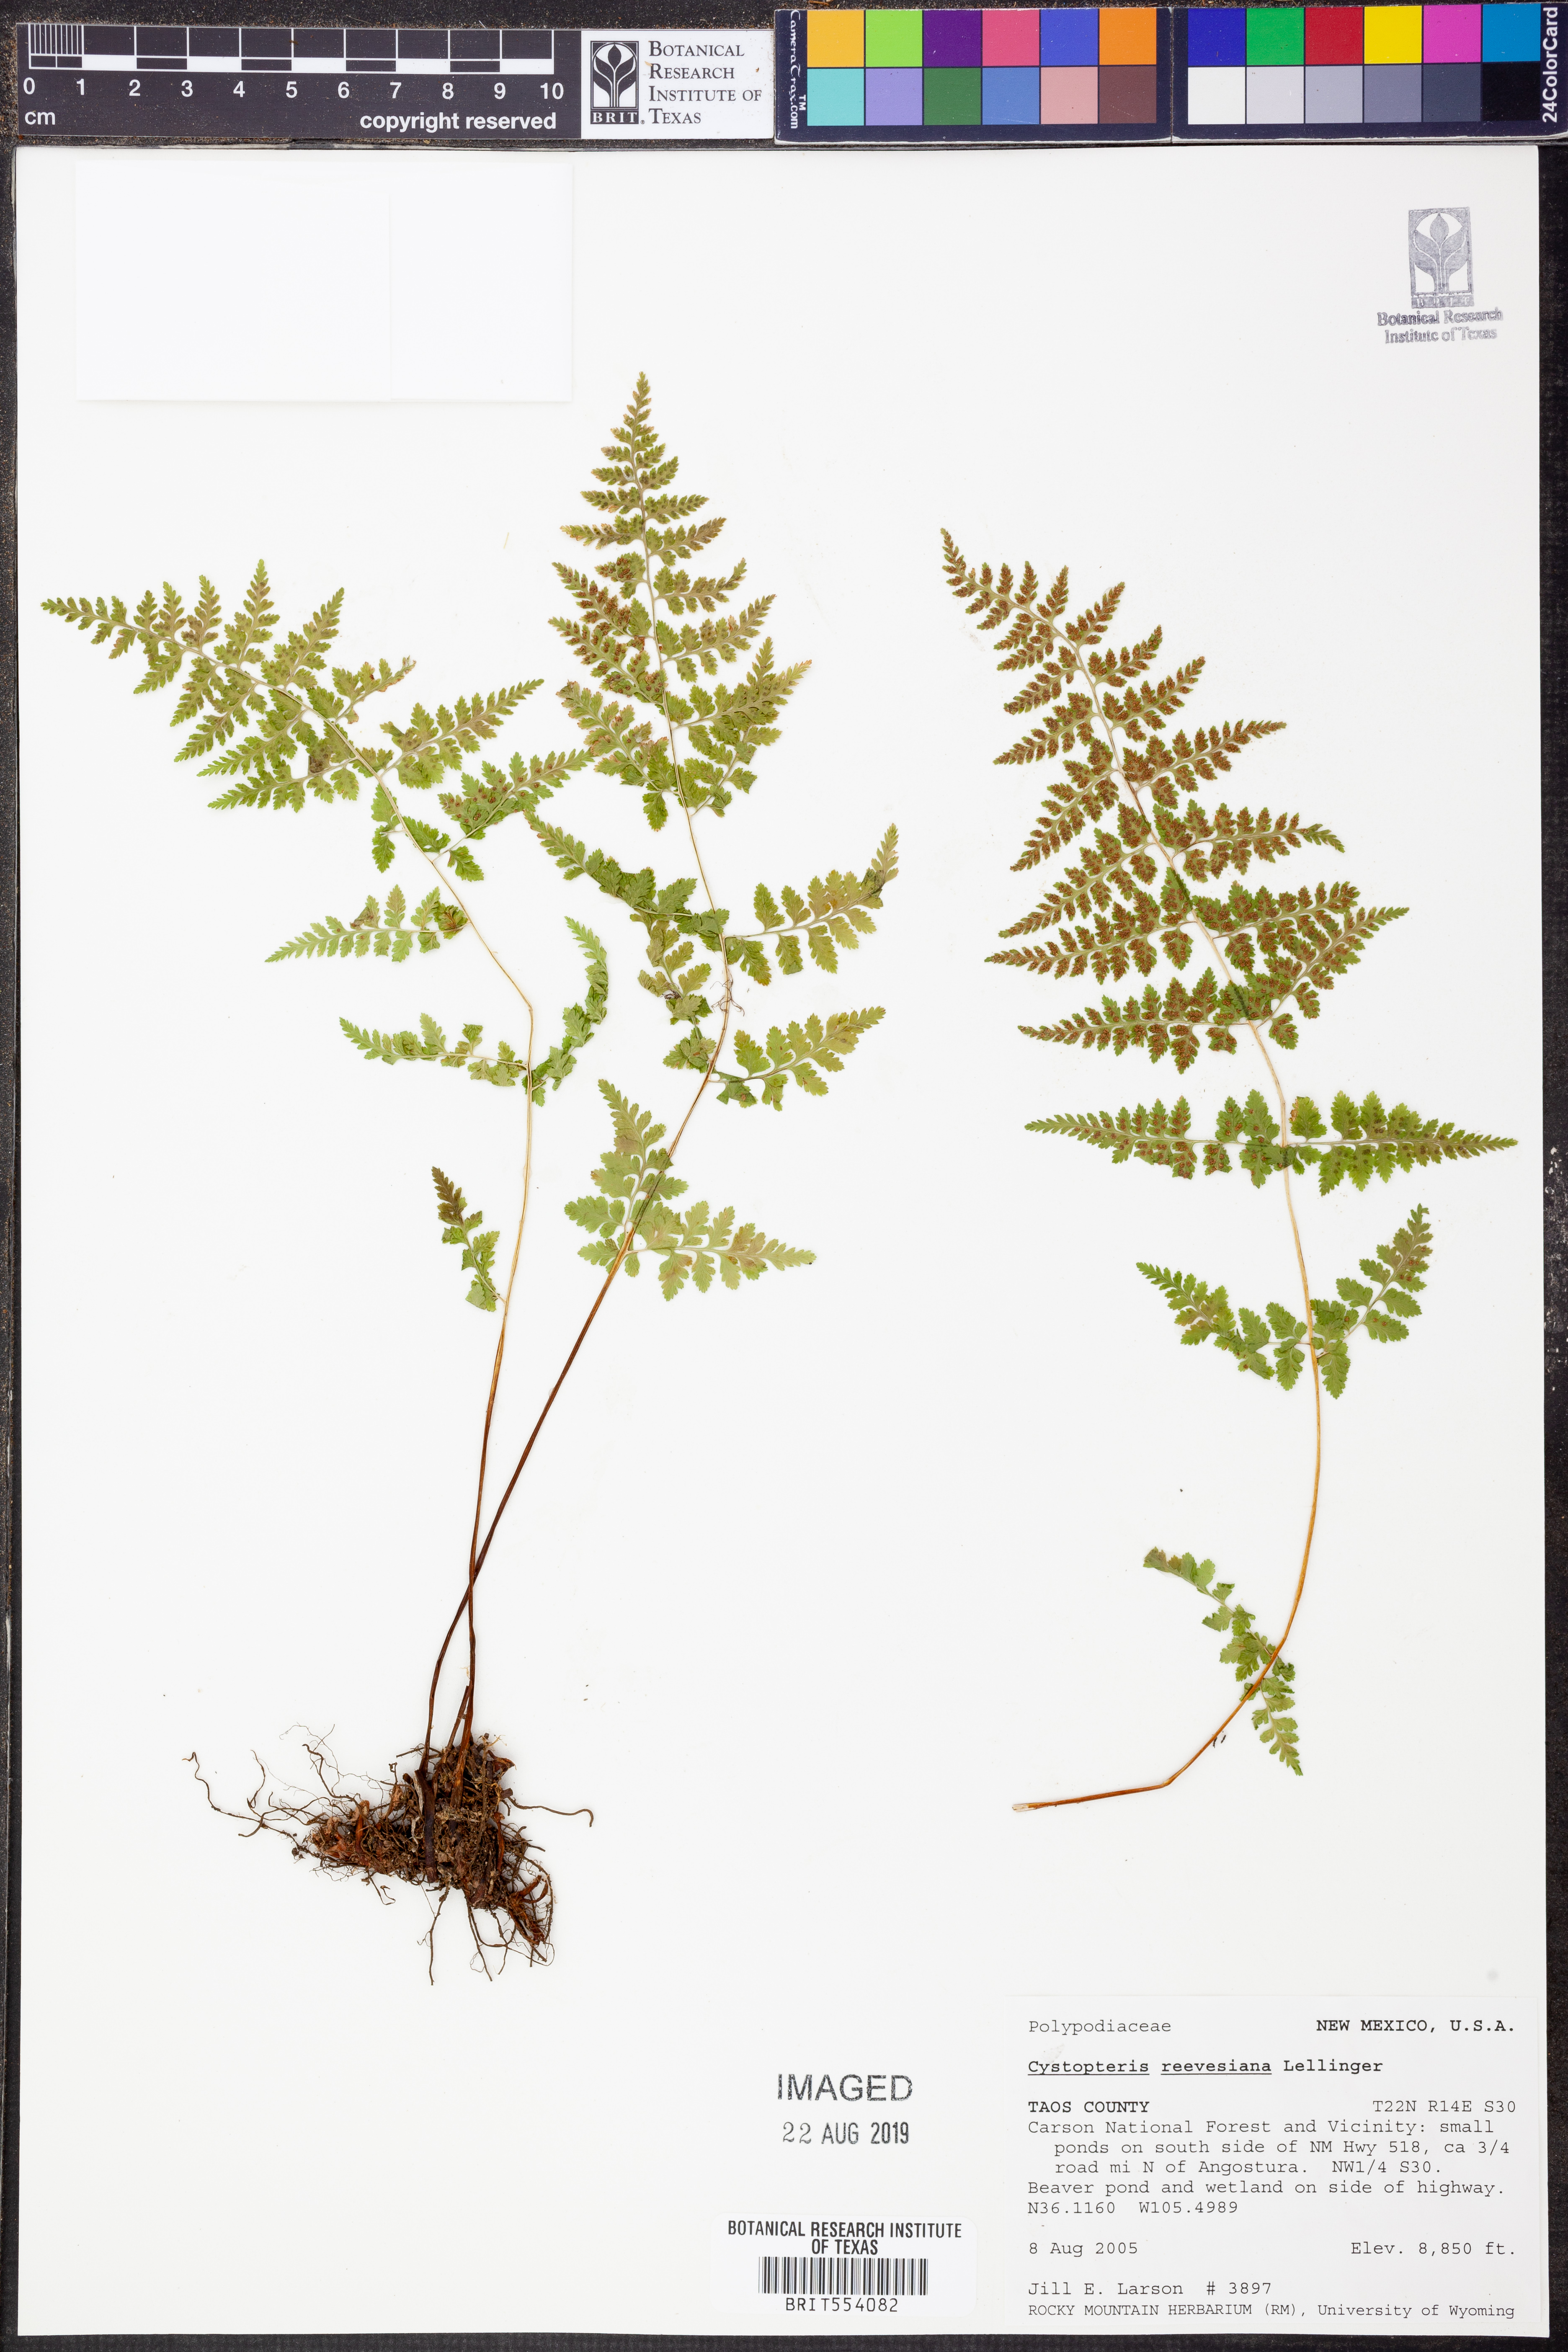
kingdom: Plantae
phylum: Tracheophyta
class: Polypodiopsida
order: Polypodiales
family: Cystopteridaceae
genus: Cystopteris
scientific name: Cystopteris reevesiana
